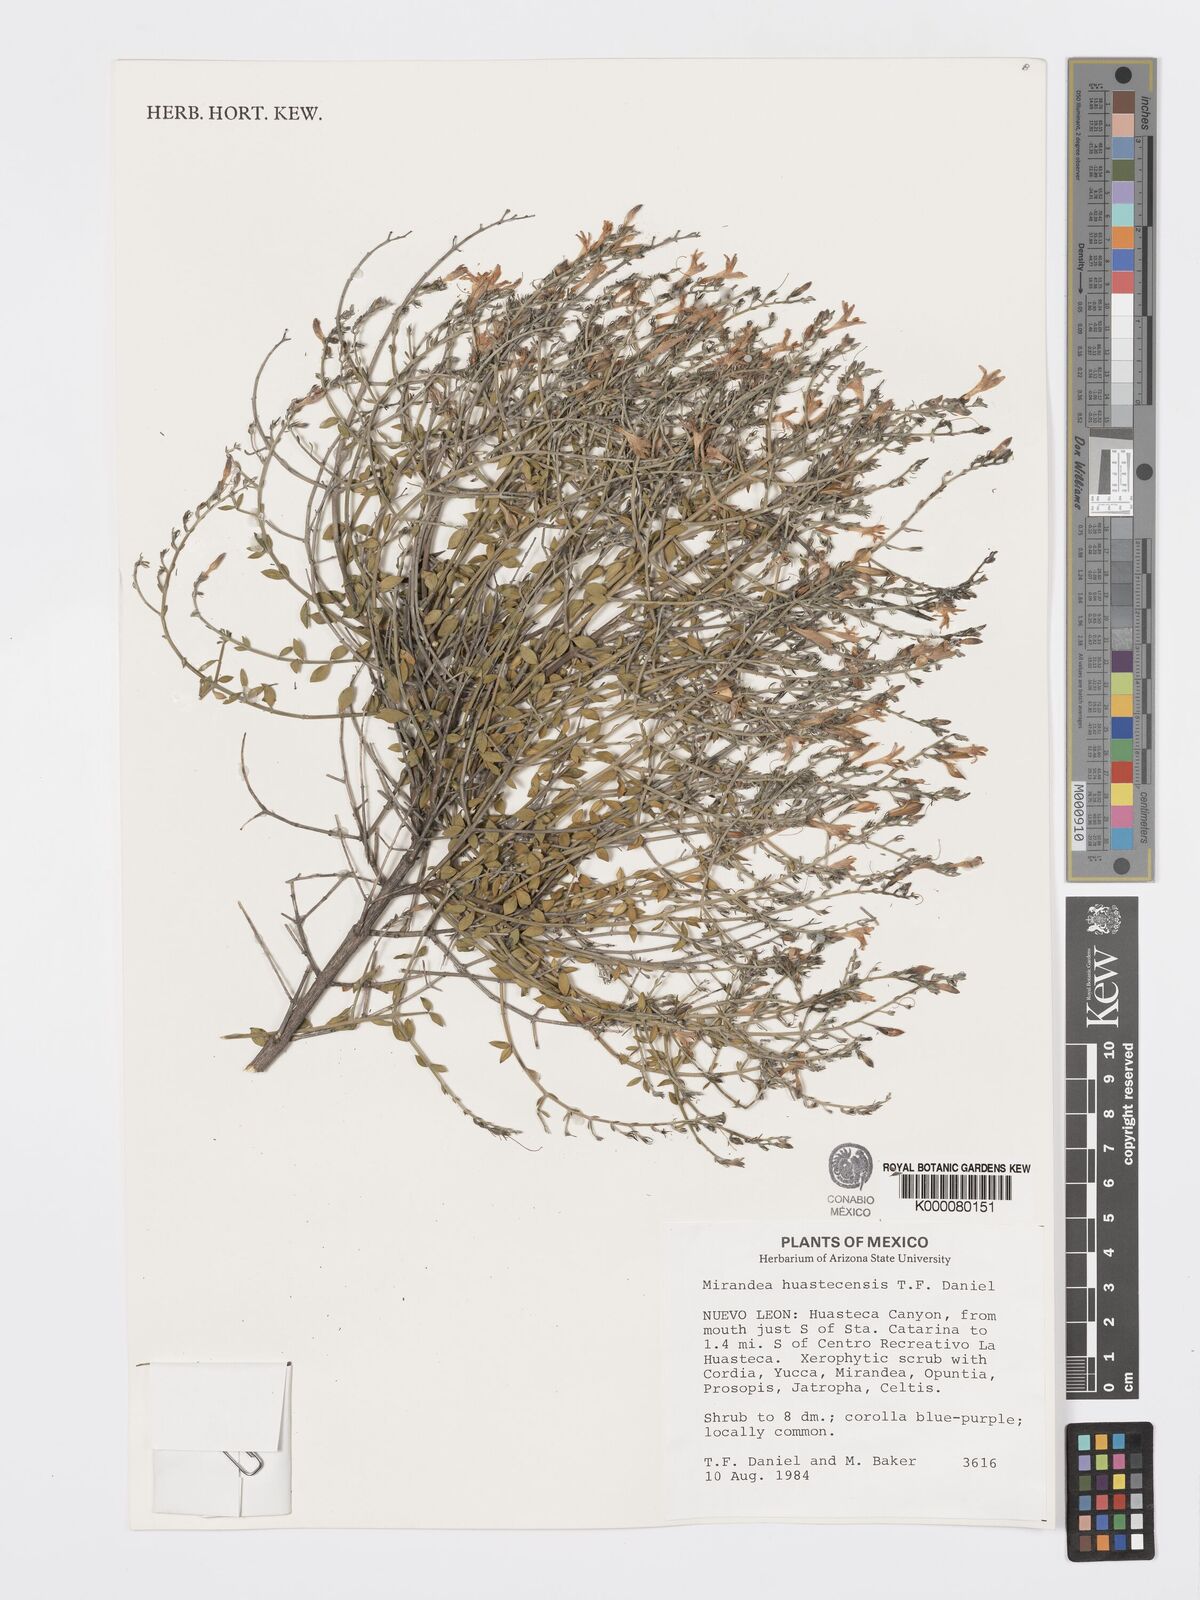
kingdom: Plantae
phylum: Tracheophyta
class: Magnoliopsida
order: Lamiales
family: Acanthaceae
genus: Mirandea
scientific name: Mirandea huastecensis
